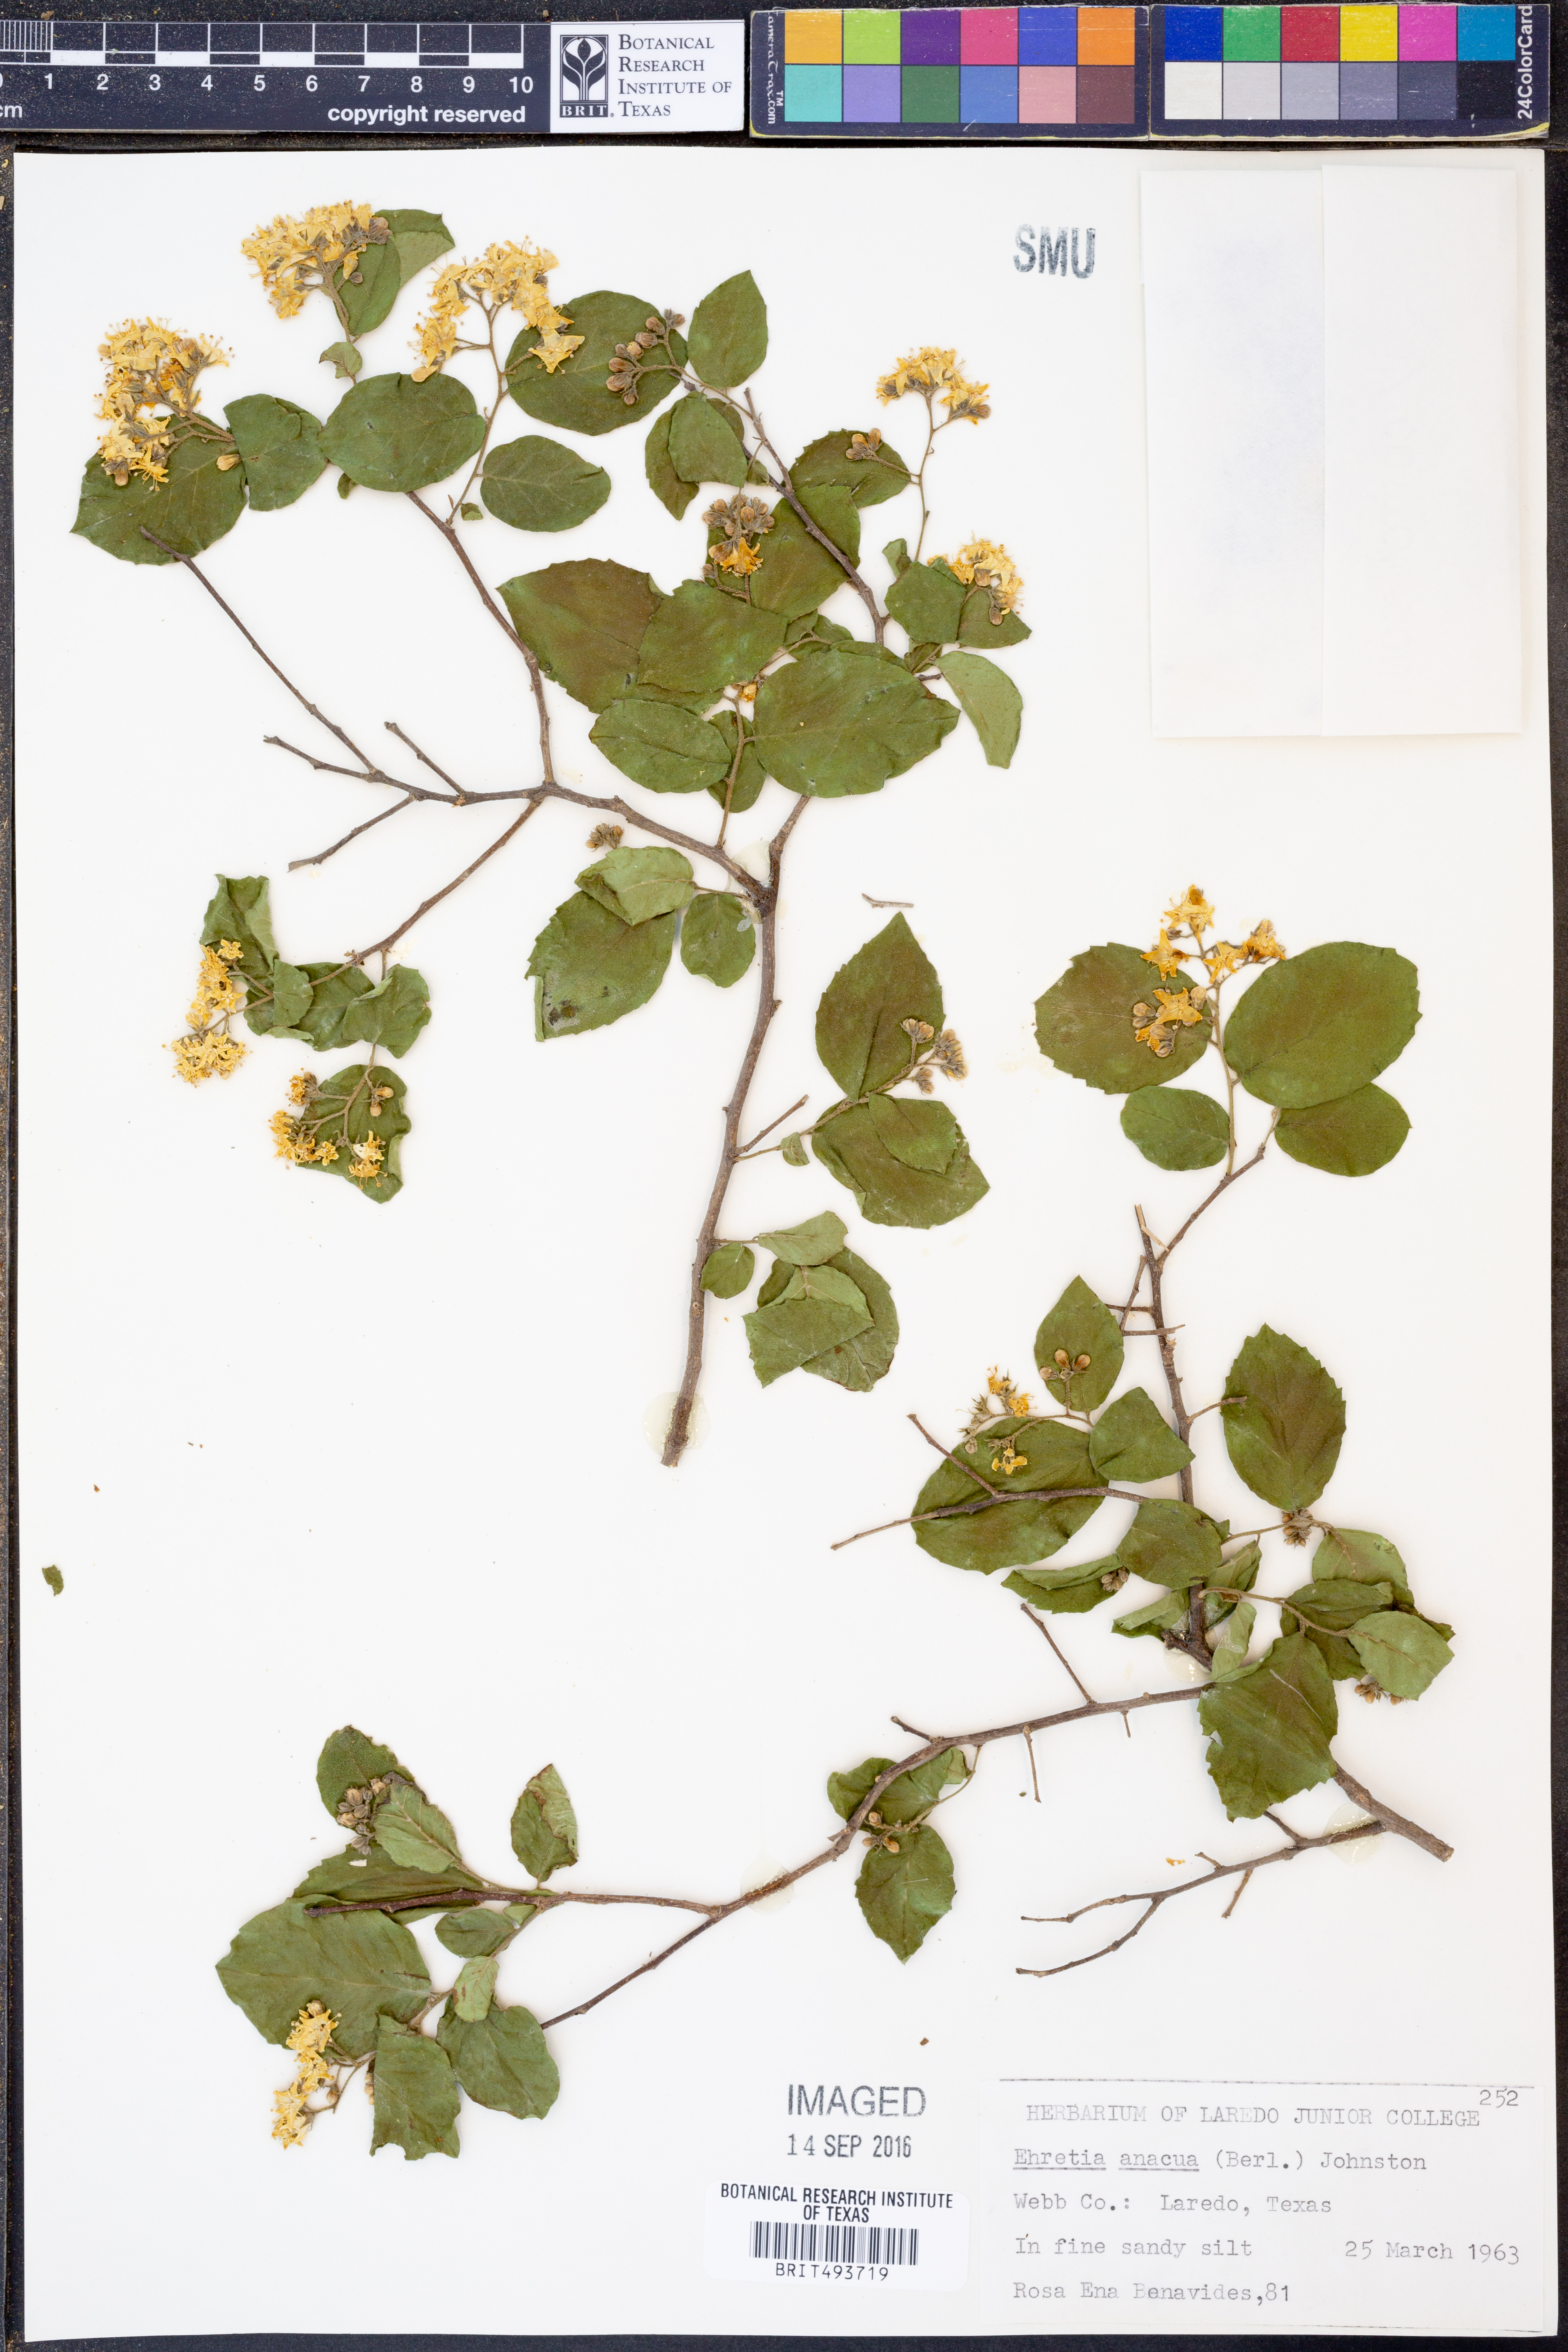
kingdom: Plantae
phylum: Tracheophyta
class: Magnoliopsida
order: Boraginales
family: Ehretiaceae
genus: Ehretia
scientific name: Ehretia anacua
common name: Sugarberry
